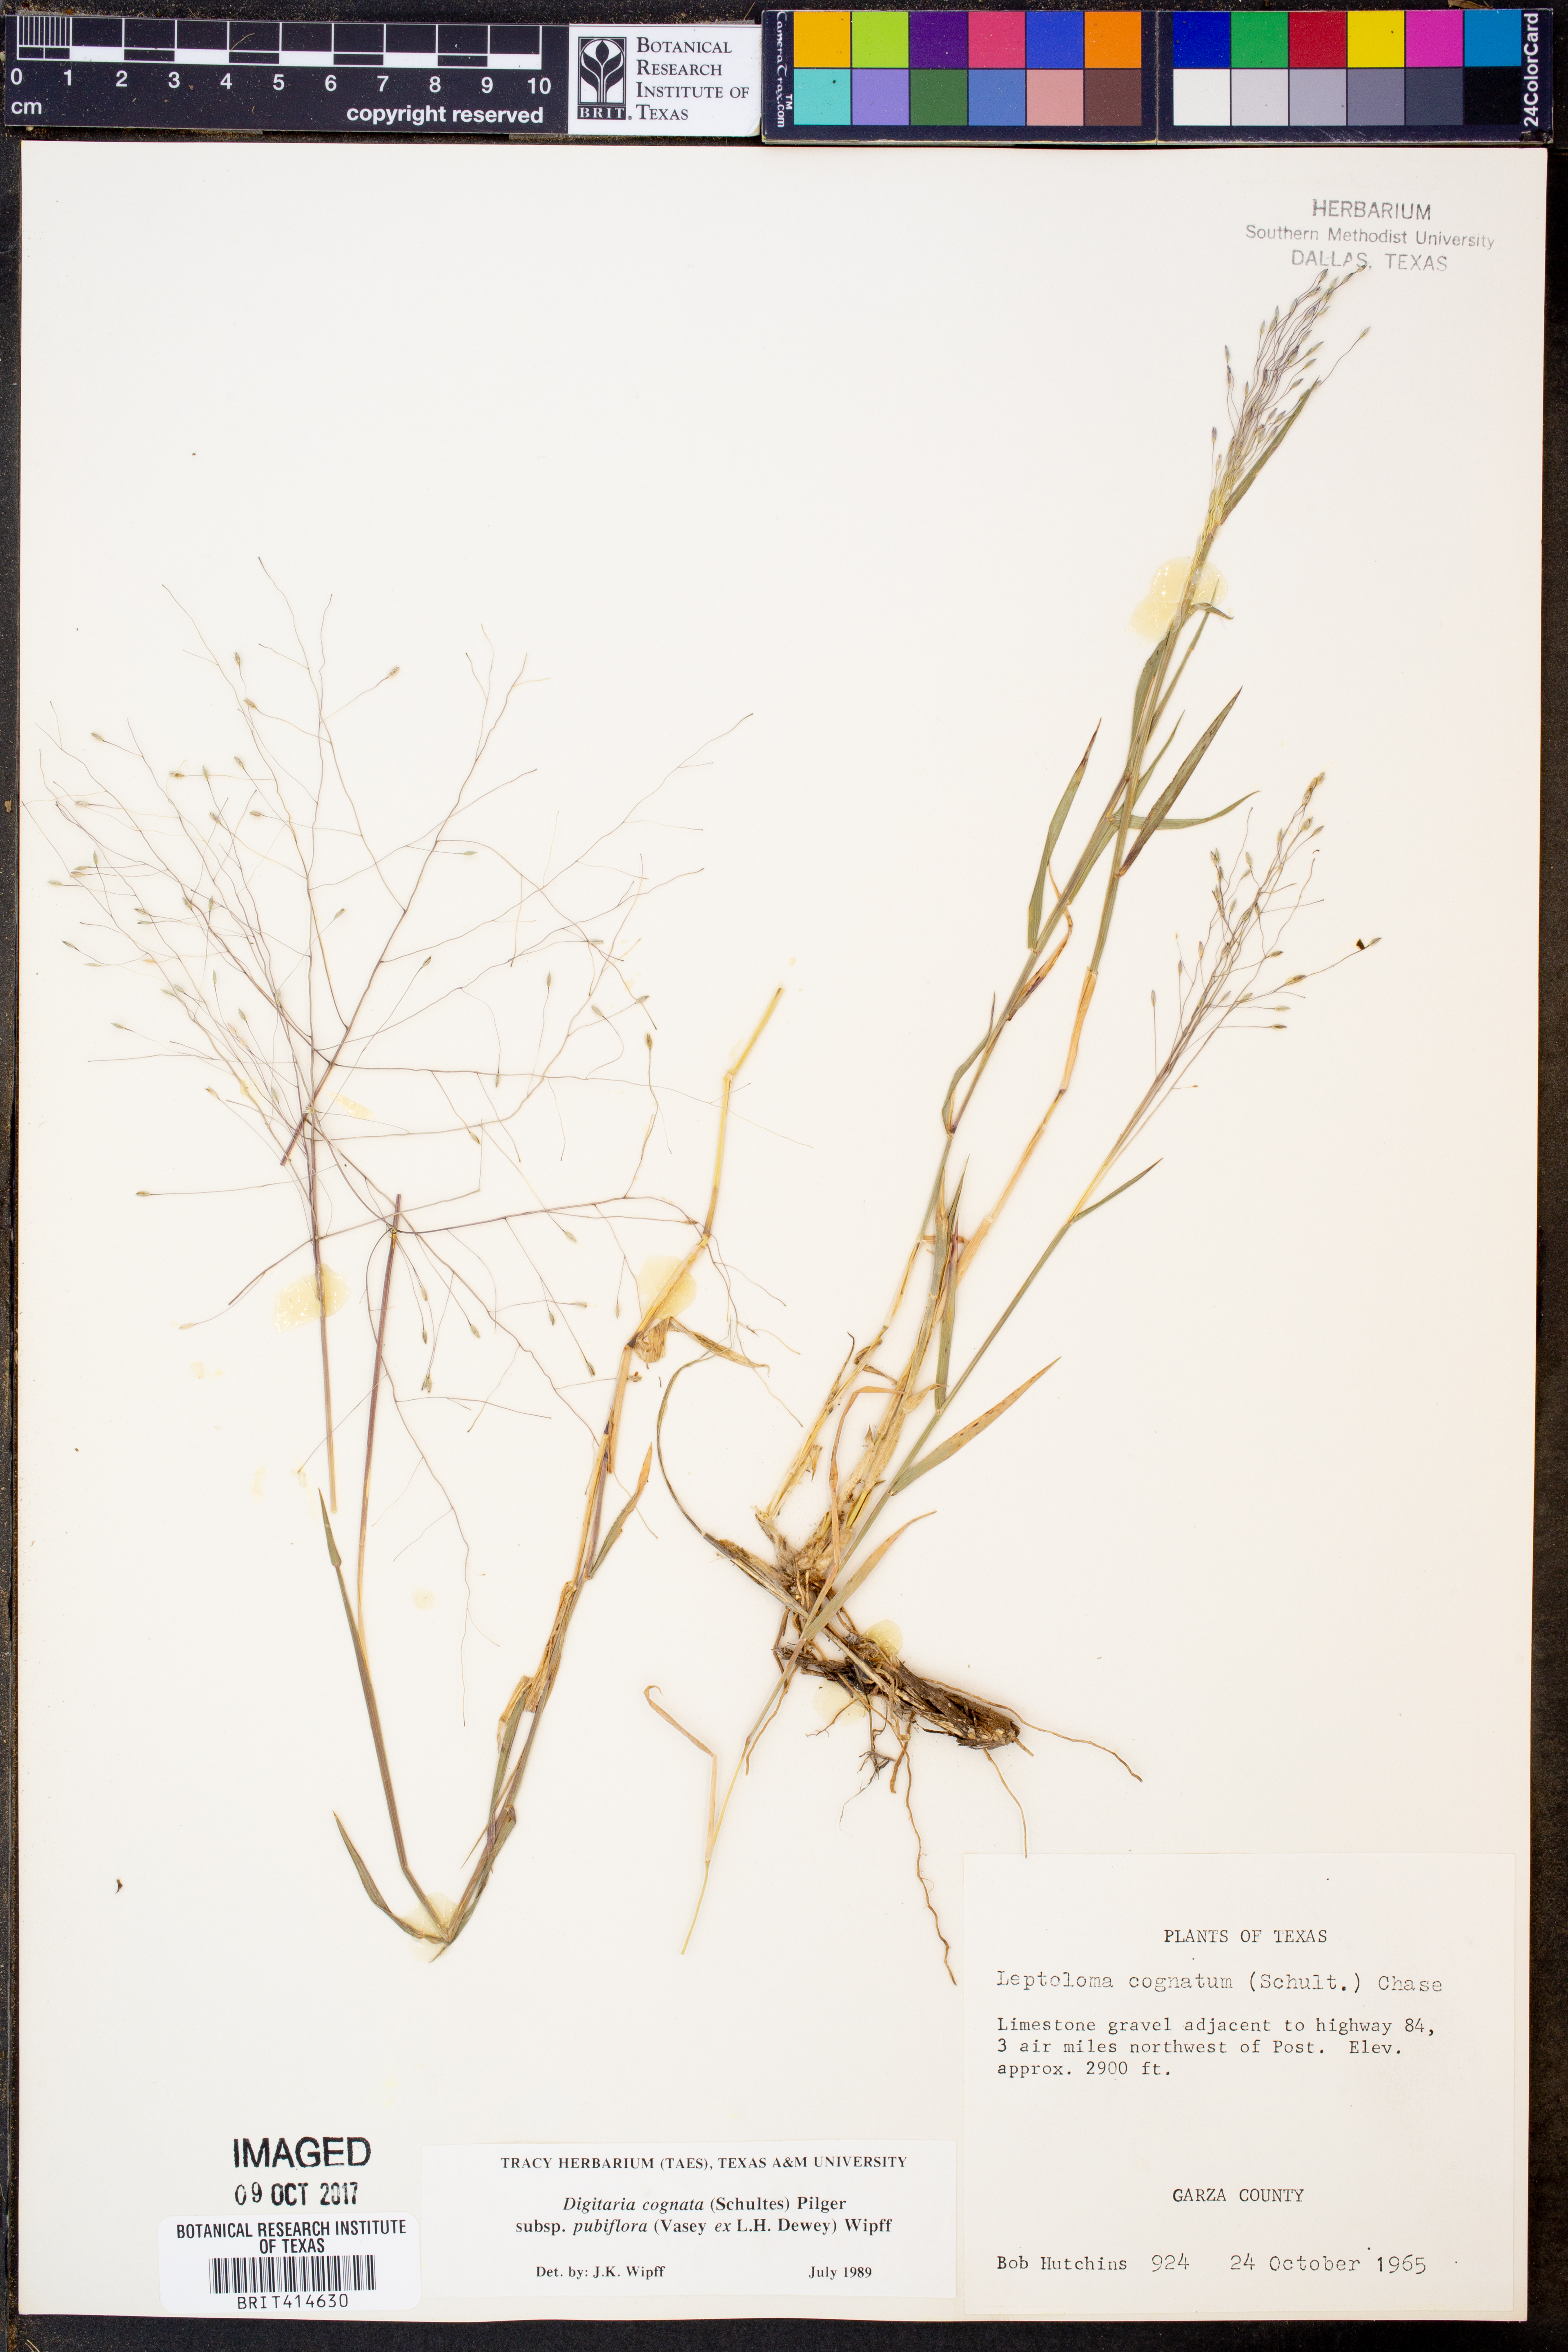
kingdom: Plantae
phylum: Tracheophyta
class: Liliopsida
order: Poales
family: Poaceae
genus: Digitaria
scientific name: Digitaria cognata
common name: Fall witchgrass
